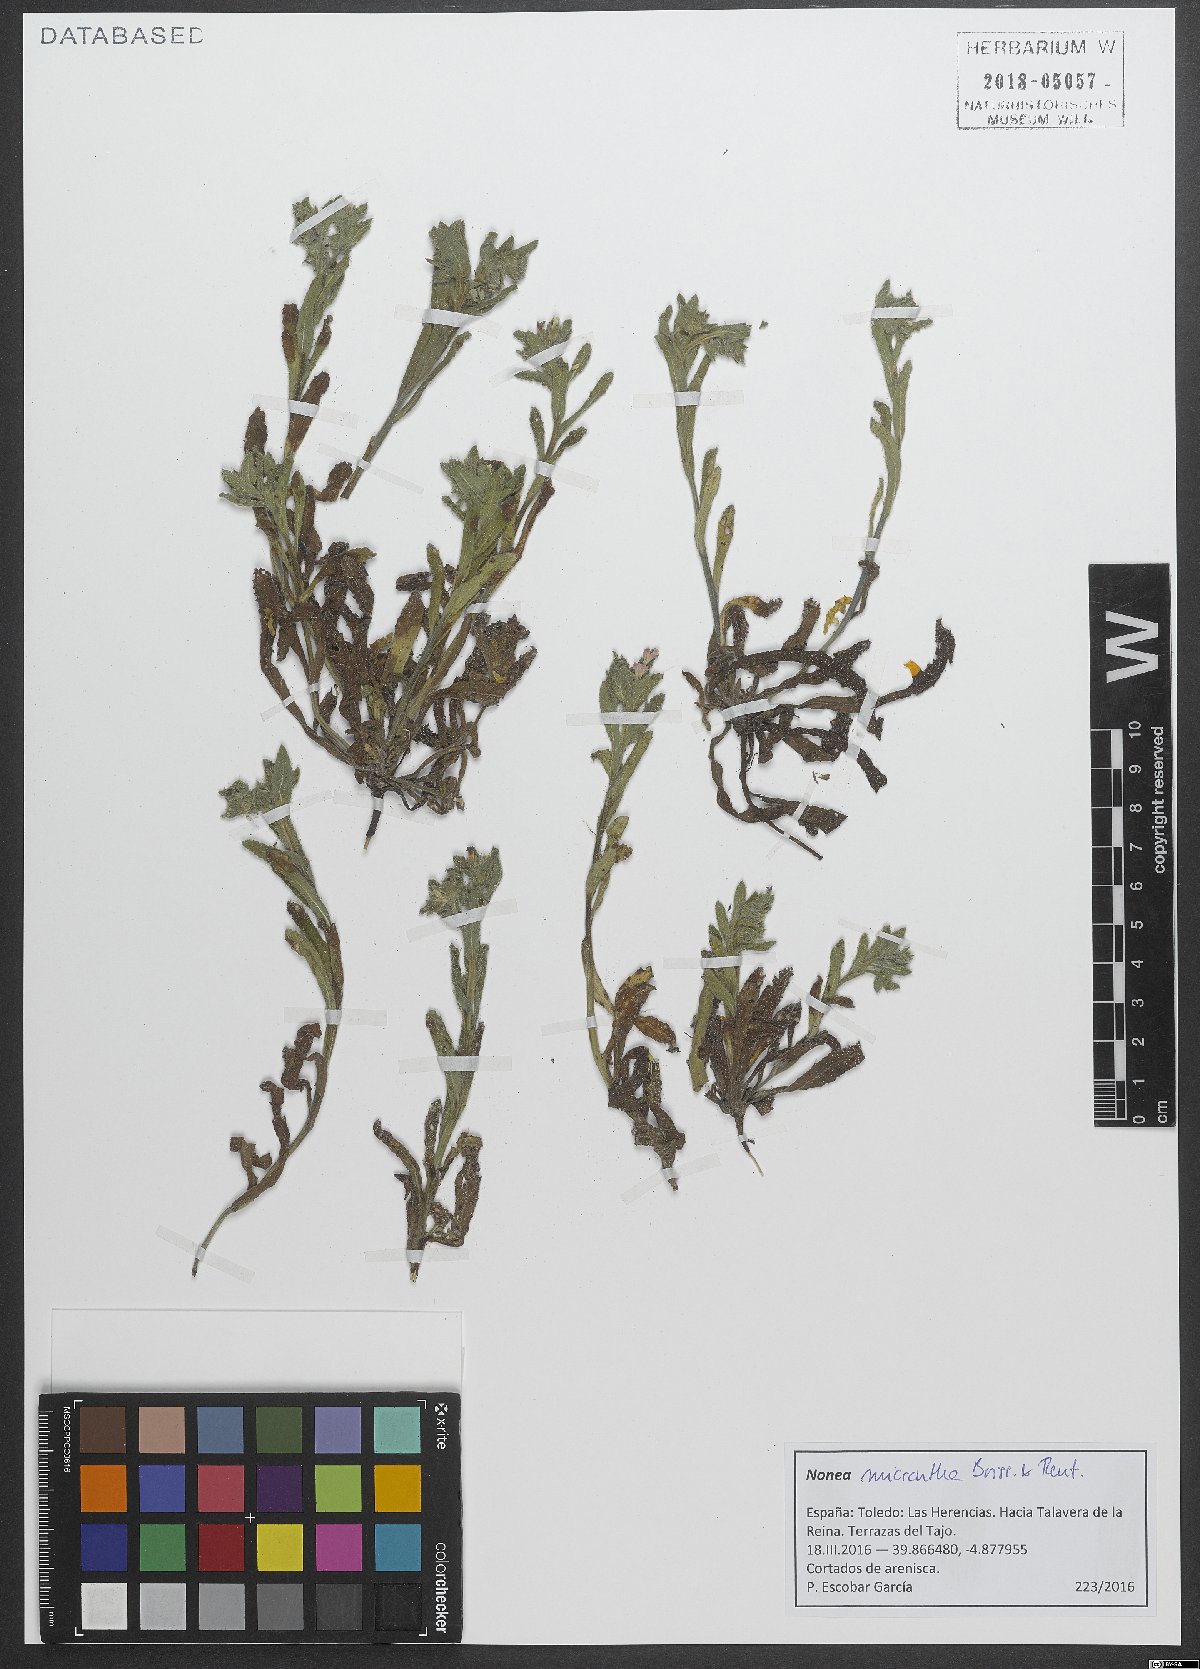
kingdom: Plantae
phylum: Tracheophyta
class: Magnoliopsida
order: Boraginales
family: Boraginaceae
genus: Nonea
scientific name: Nonea micrantha
